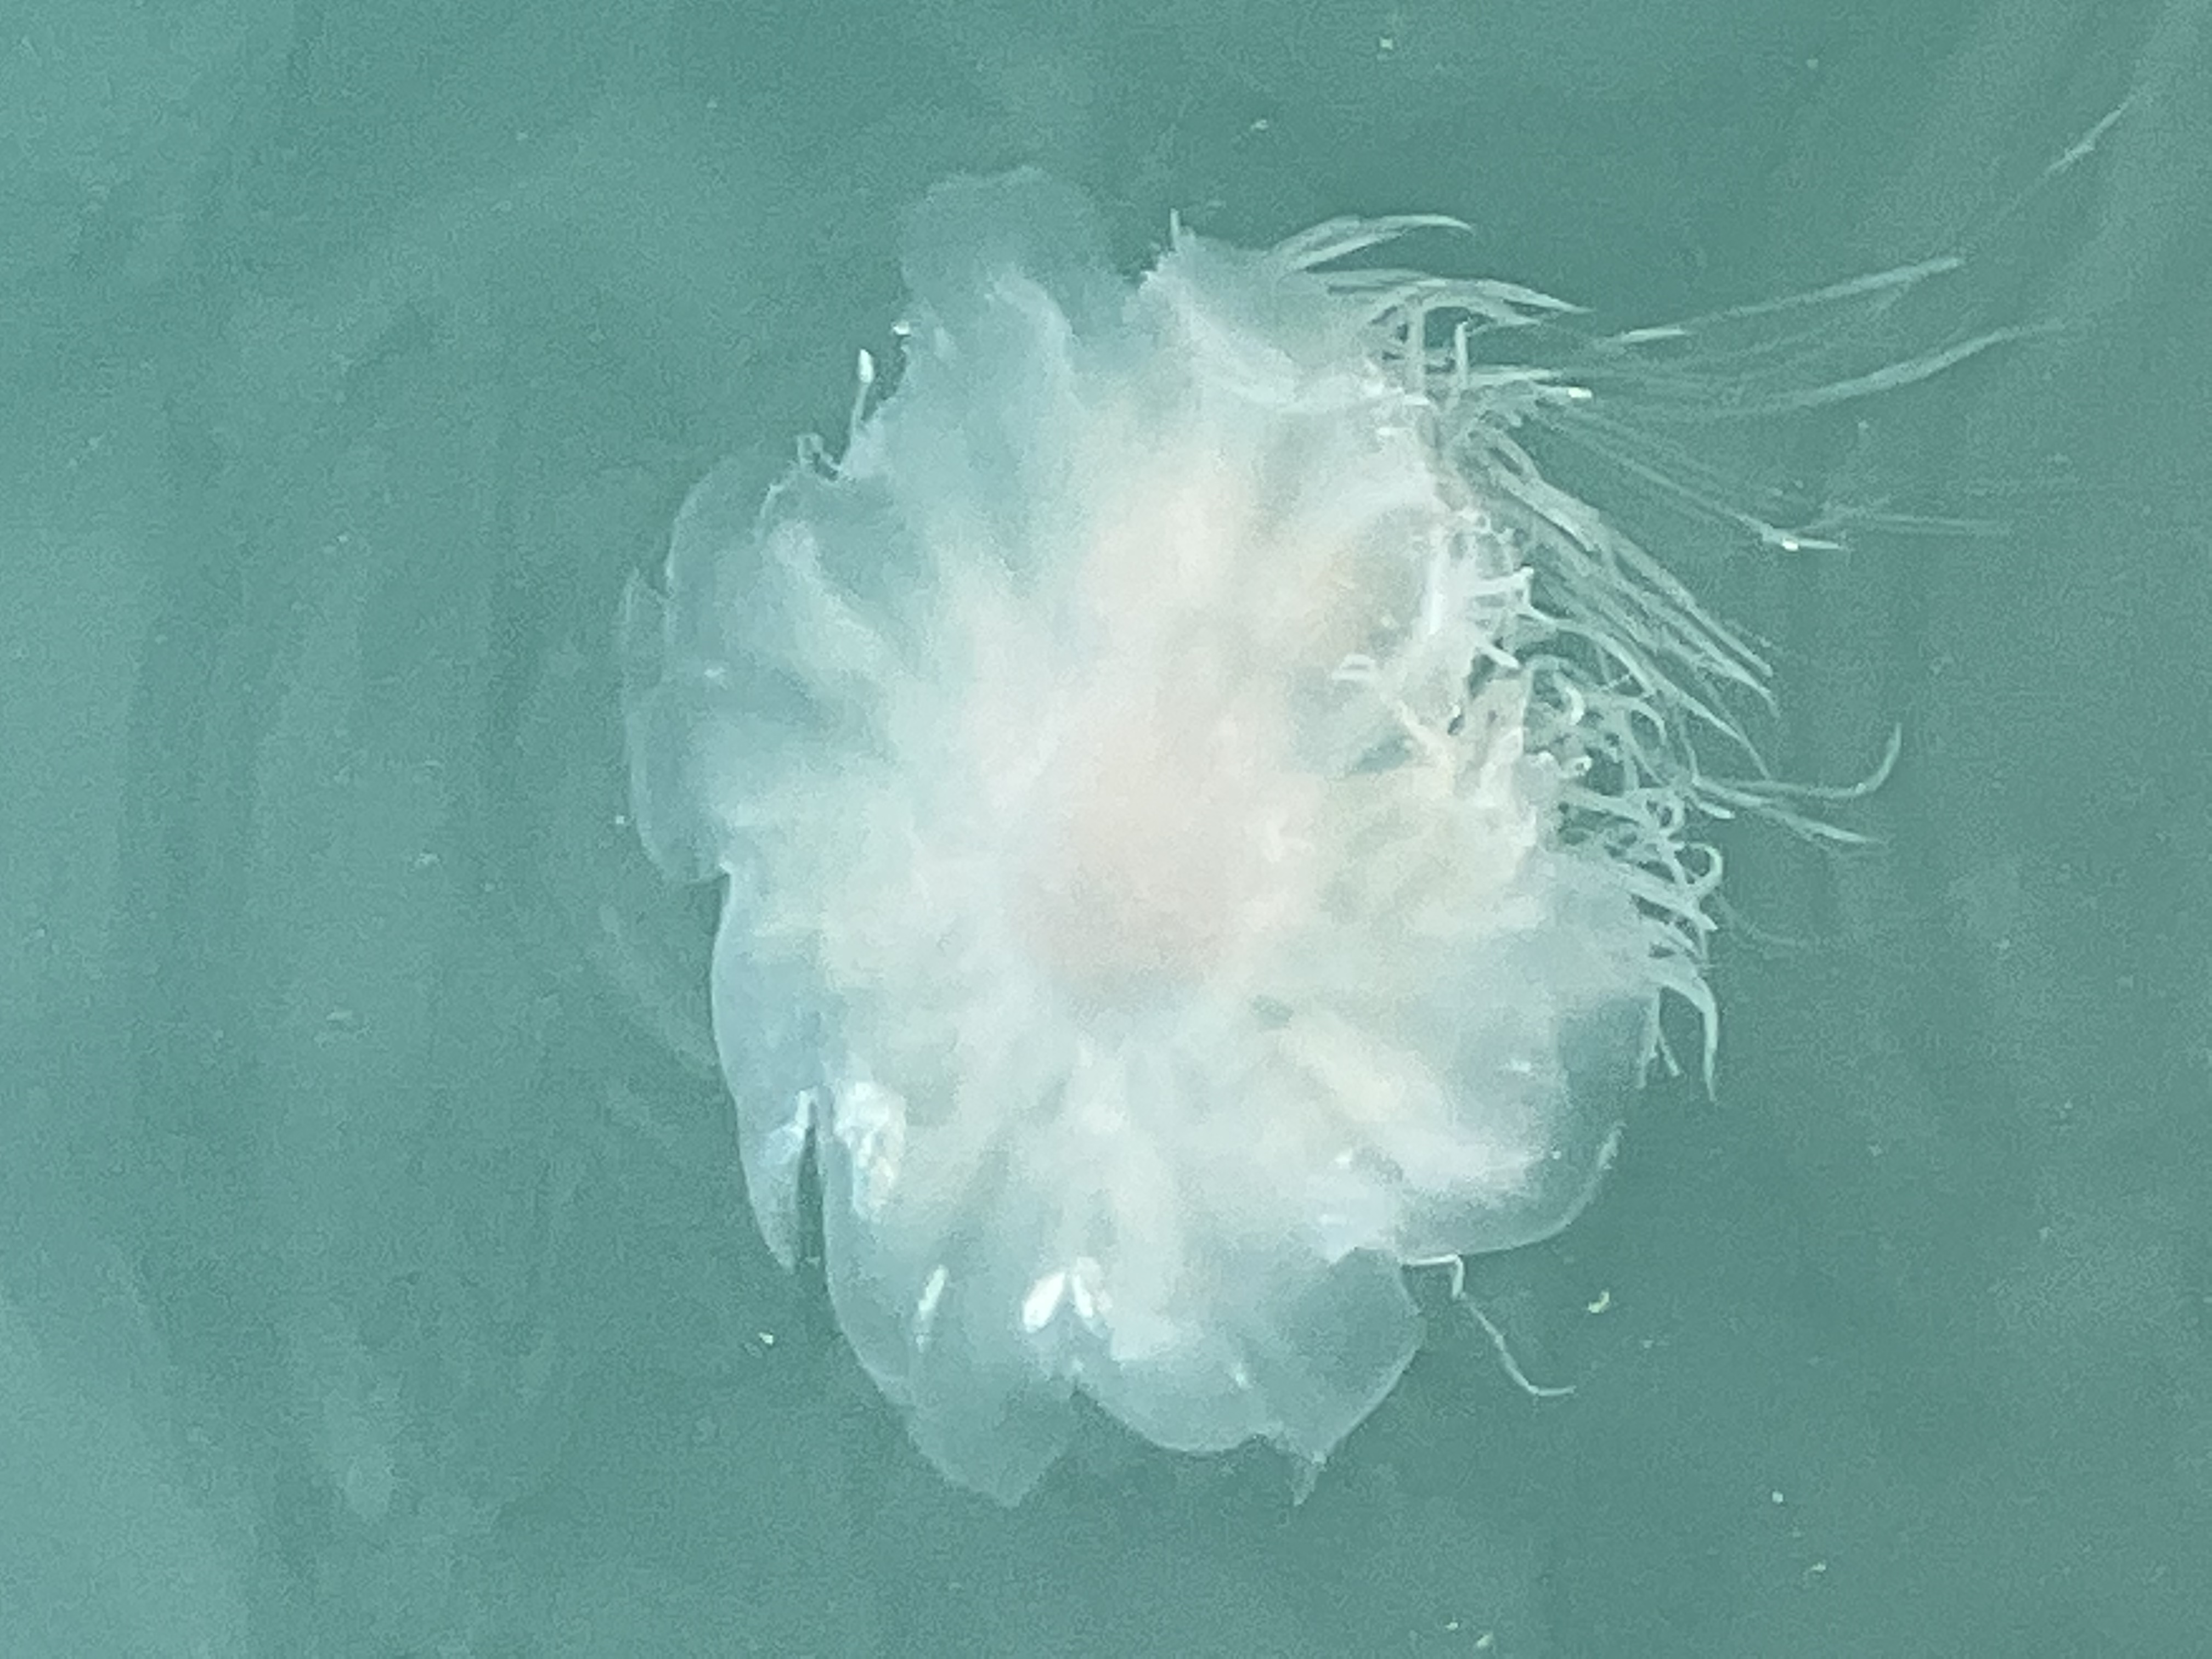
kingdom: Animalia
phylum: Cnidaria
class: Scyphozoa
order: Semaeostomeae
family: Cyaneidae
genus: Cyanea
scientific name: Cyanea nozakii
